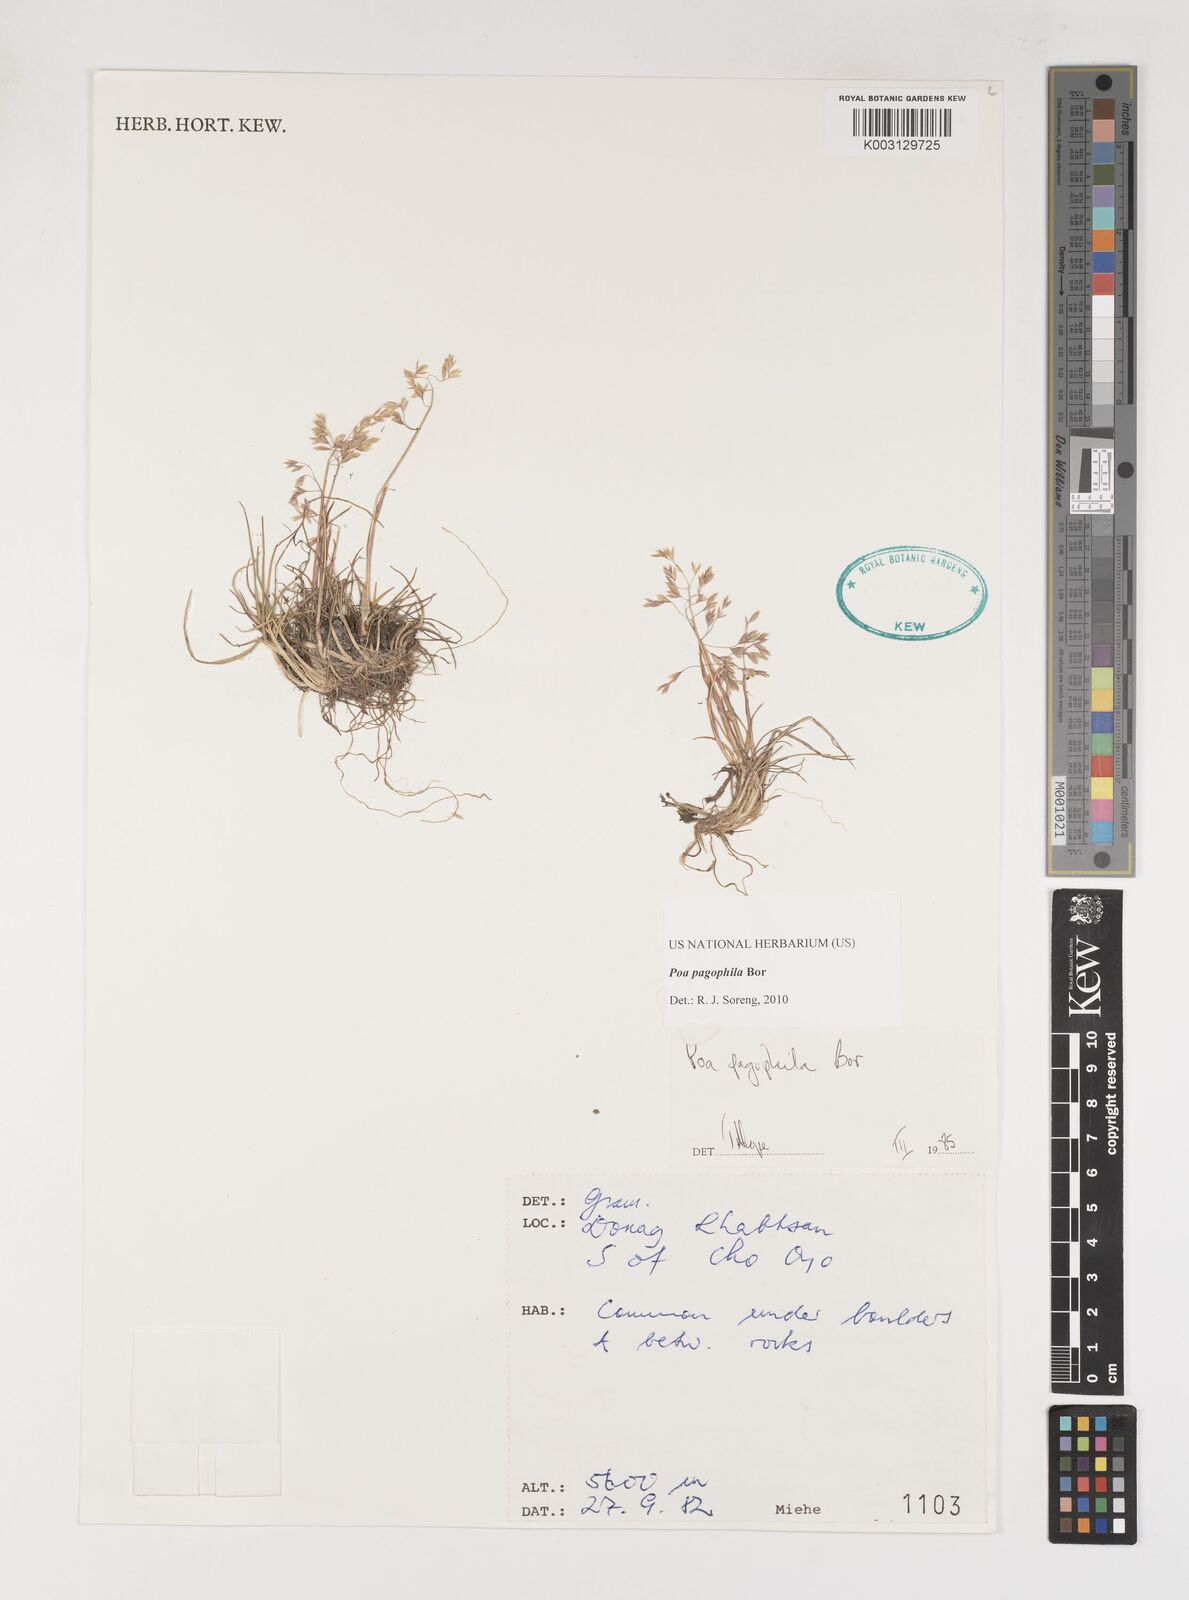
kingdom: Plantae
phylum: Tracheophyta
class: Liliopsida
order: Poales
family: Poaceae
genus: Poa
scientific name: Poa pagophila
